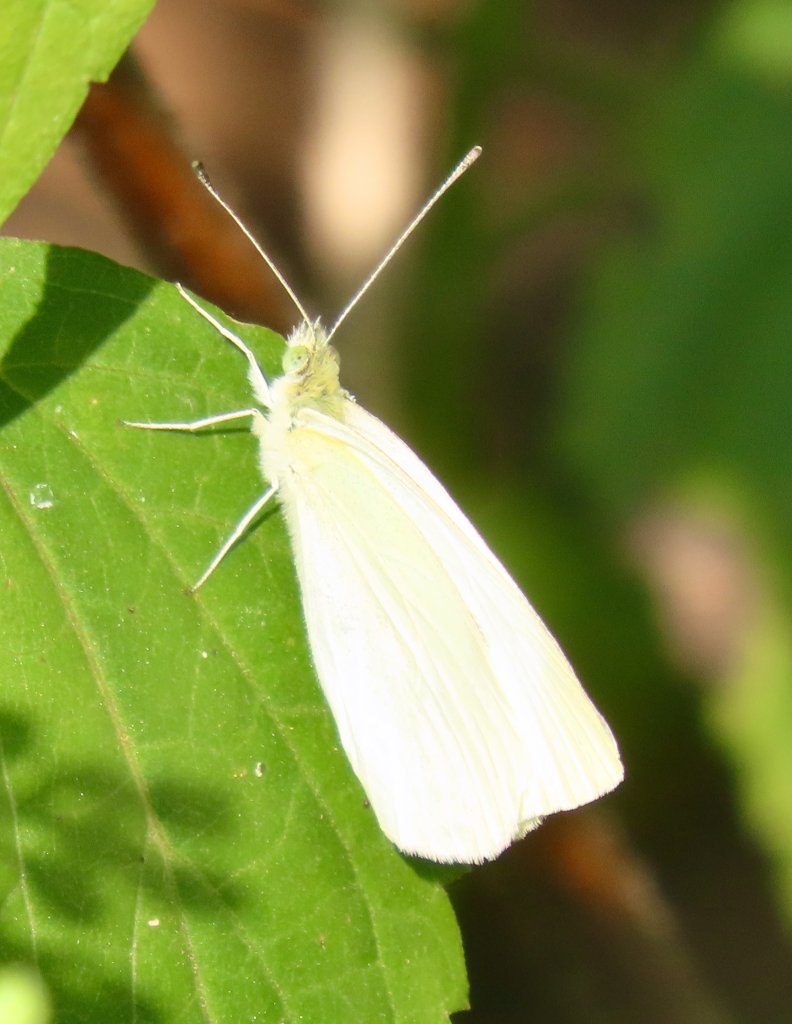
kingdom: Animalia
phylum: Arthropoda
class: Insecta
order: Lepidoptera
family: Pieridae
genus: Pieris
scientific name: Pieris rapae
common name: Cabbage White
